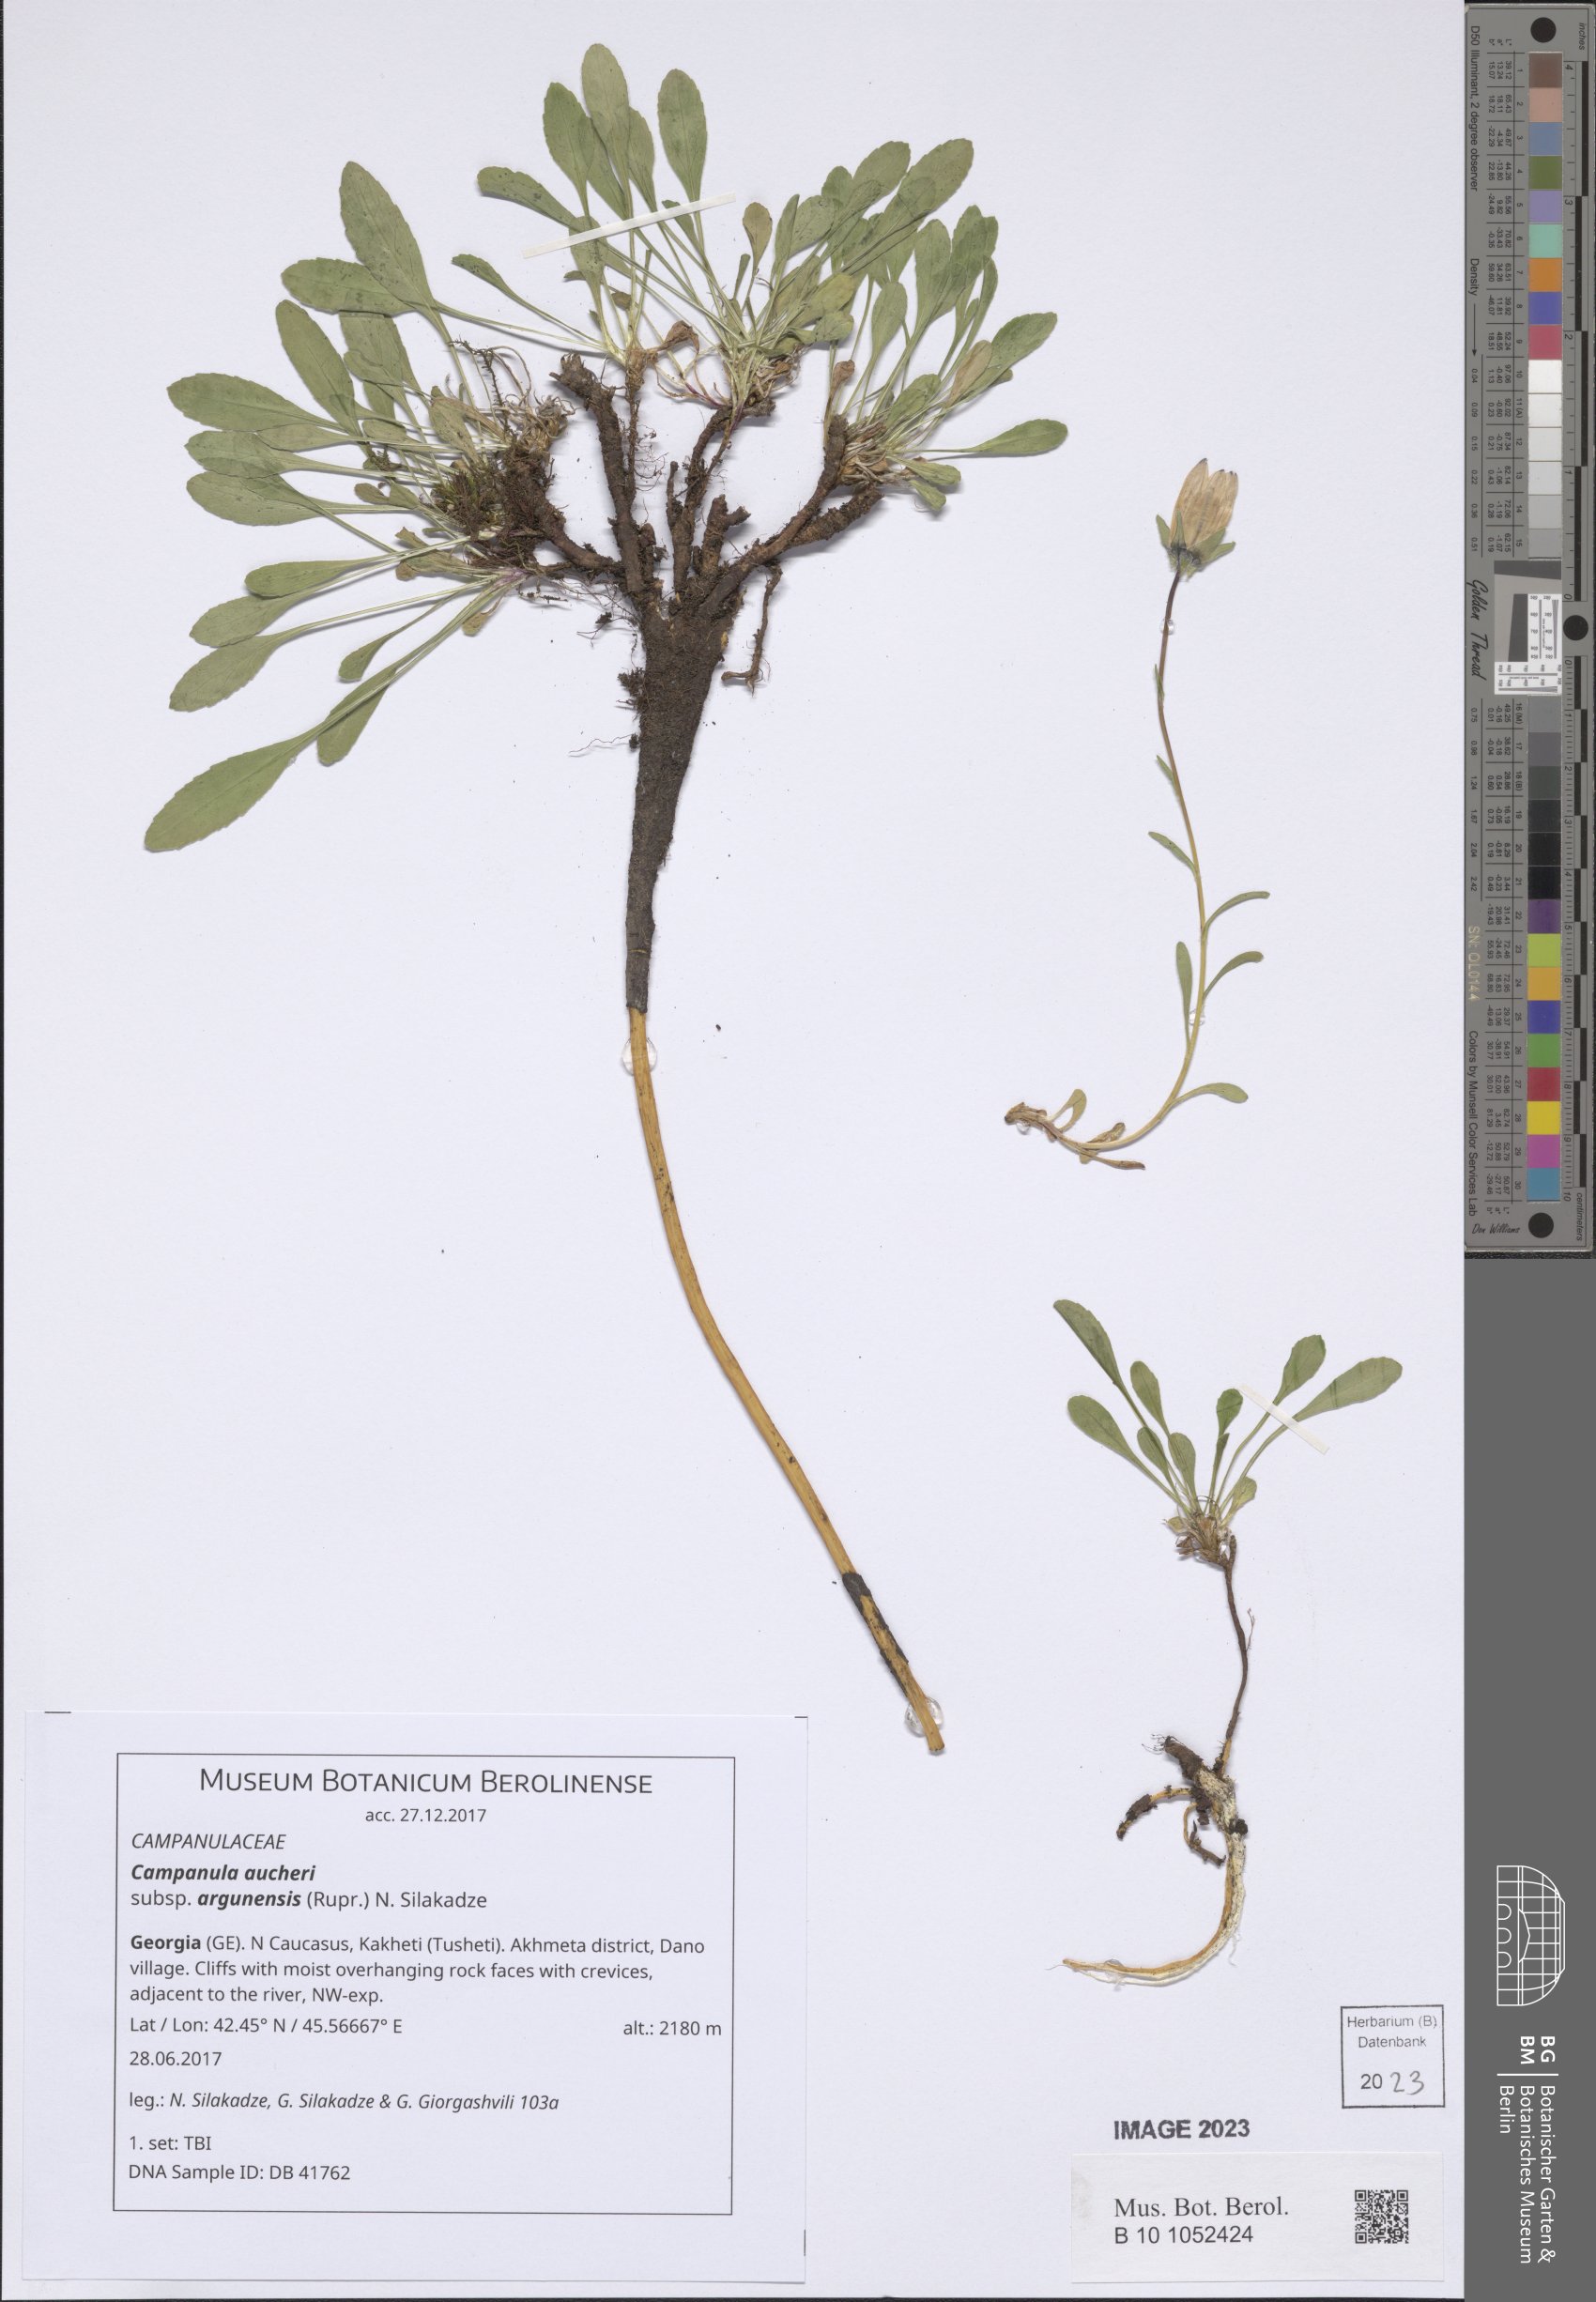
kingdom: Plantae
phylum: Tracheophyta
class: Magnoliopsida
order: Asterales
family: Campanulaceae
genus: Campanula
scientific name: Campanula saxifraga
